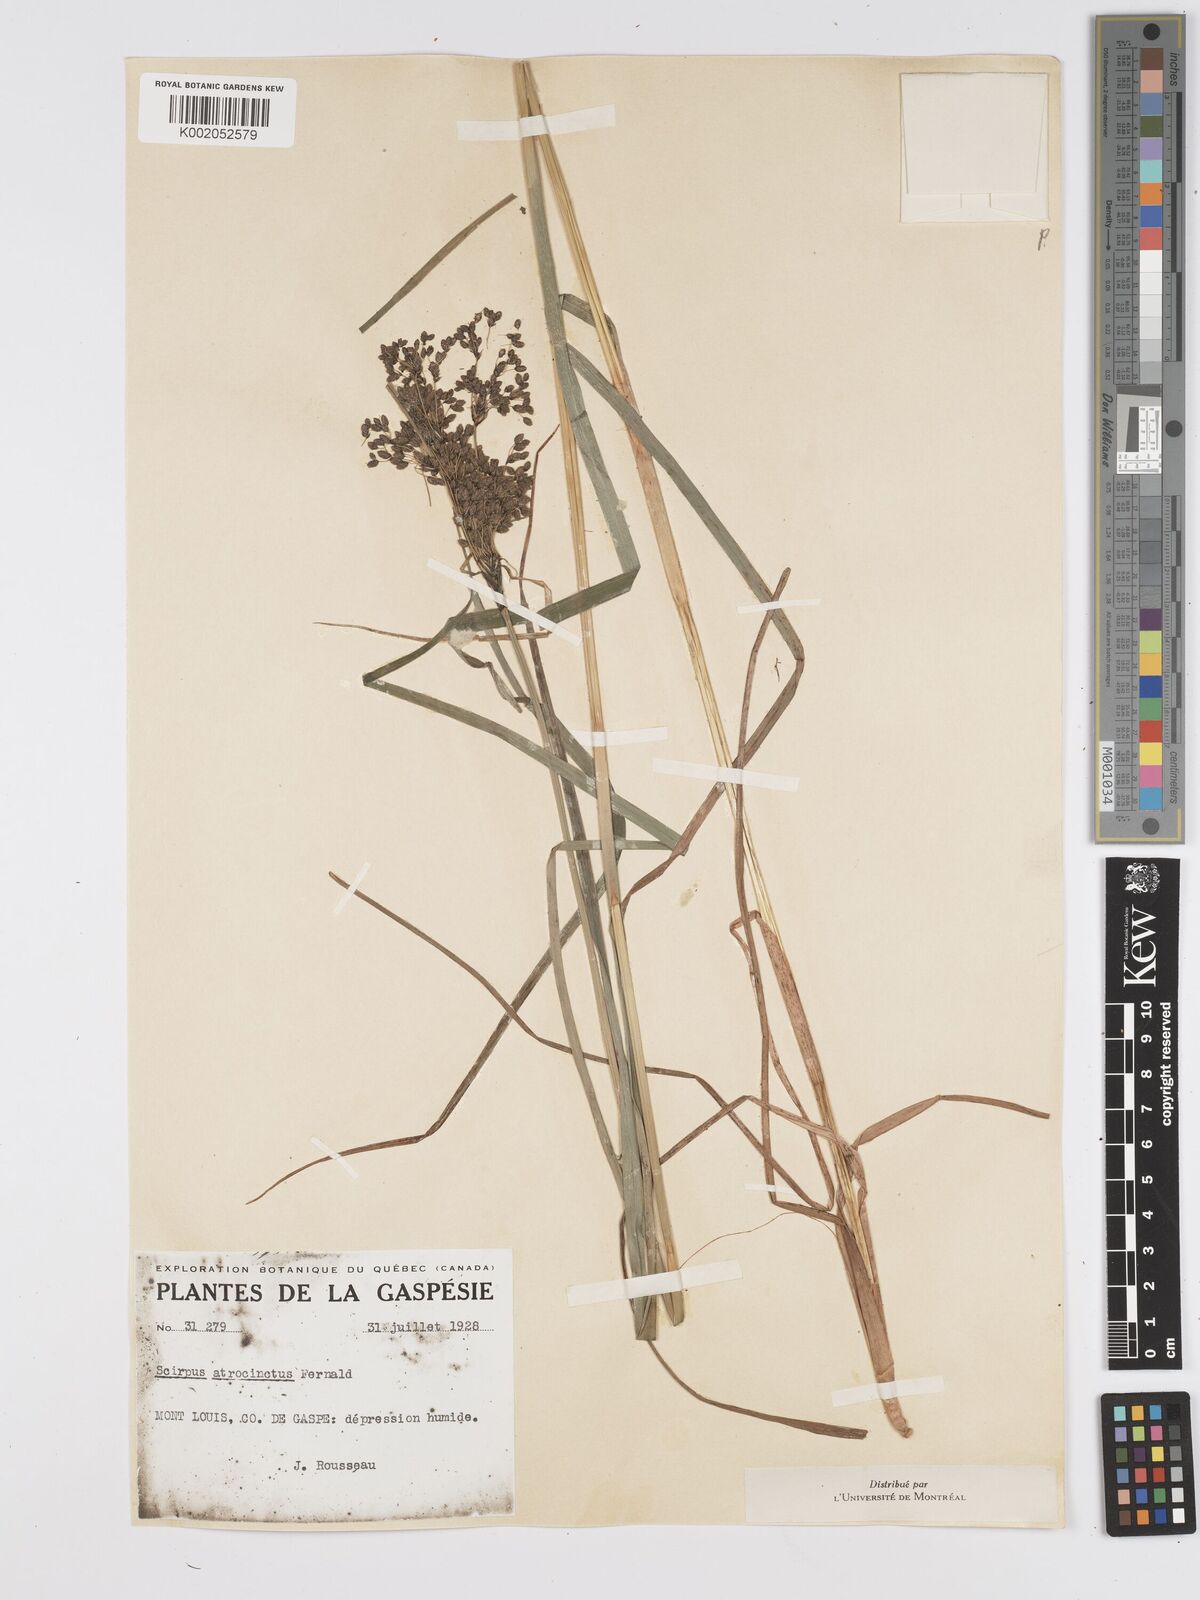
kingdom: Plantae
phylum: Tracheophyta
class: Liliopsida
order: Poales
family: Cyperaceae
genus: Scirpus
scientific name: Scirpus atrocinctus
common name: Black-girdled bulrush
